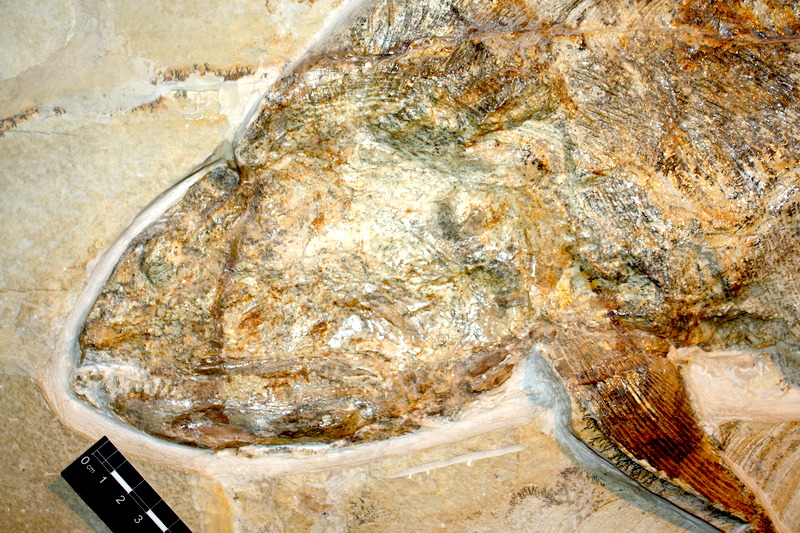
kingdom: Animalia
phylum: Chordata
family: Pachycormidae
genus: Hypsocormus
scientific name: Hypsocormus insignis
